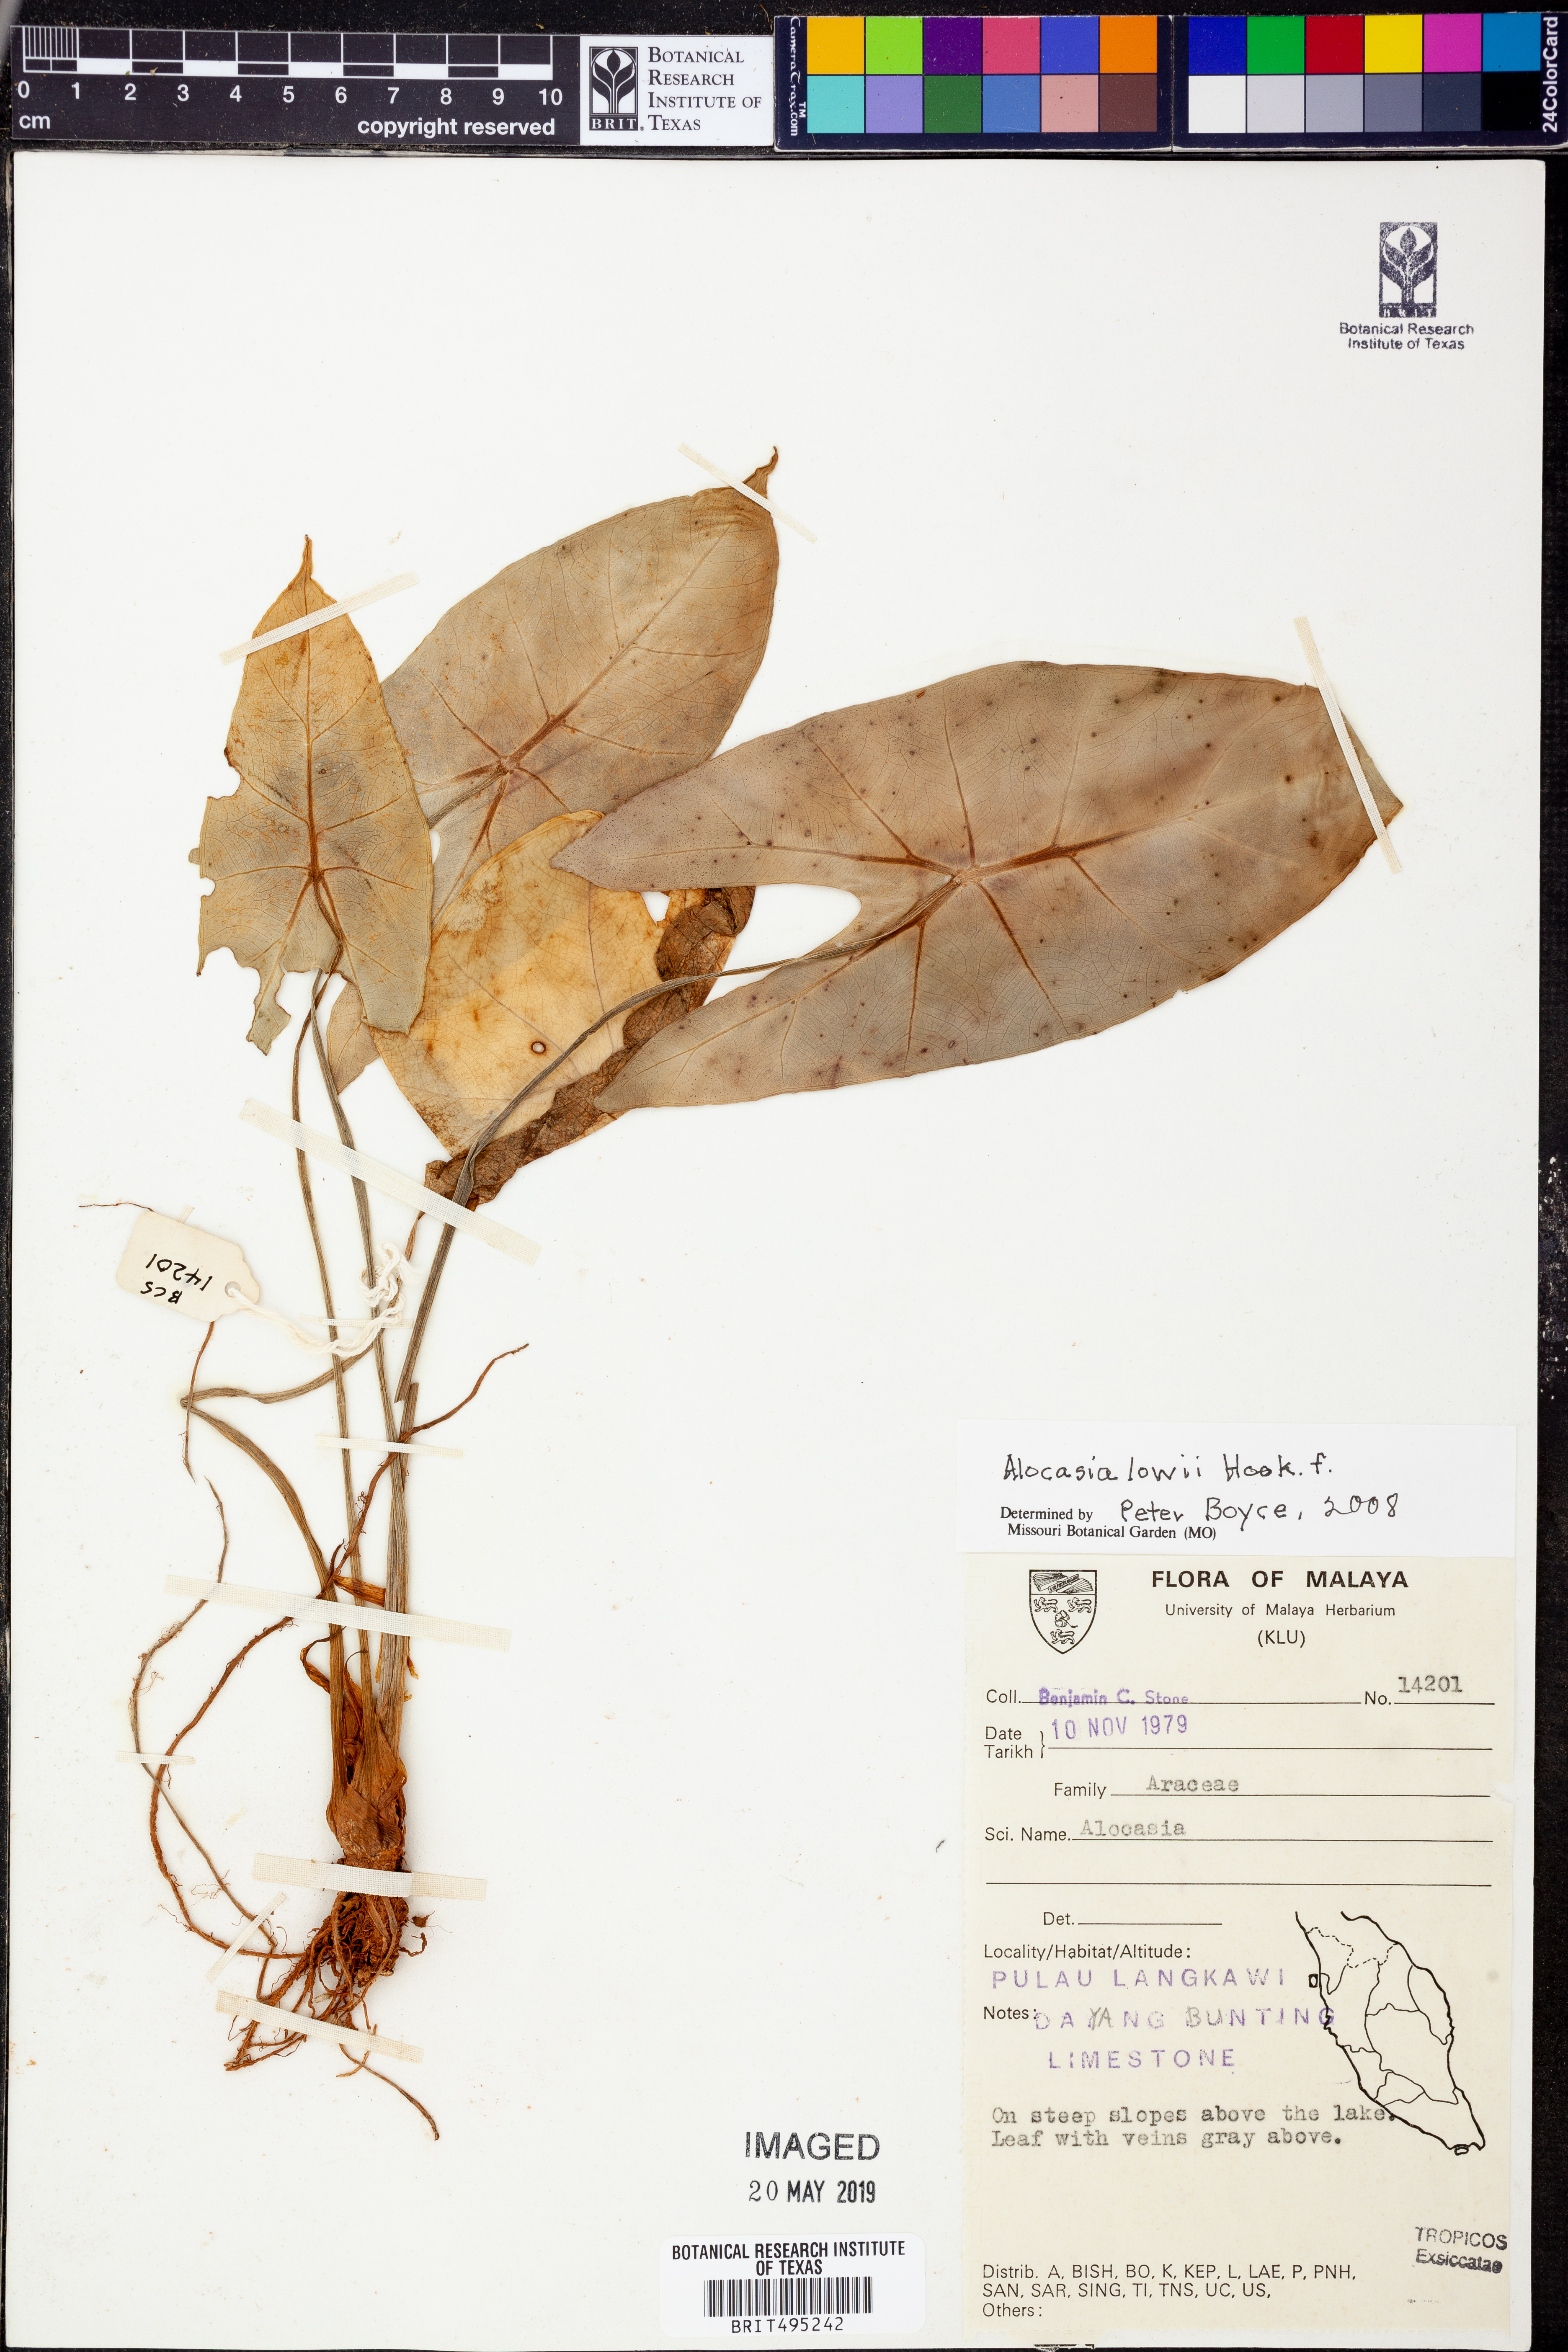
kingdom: Plantae
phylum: Tracheophyta
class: Liliopsida
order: Alismatales
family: Araceae
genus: Alocasia
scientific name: Alocasia longiloba
